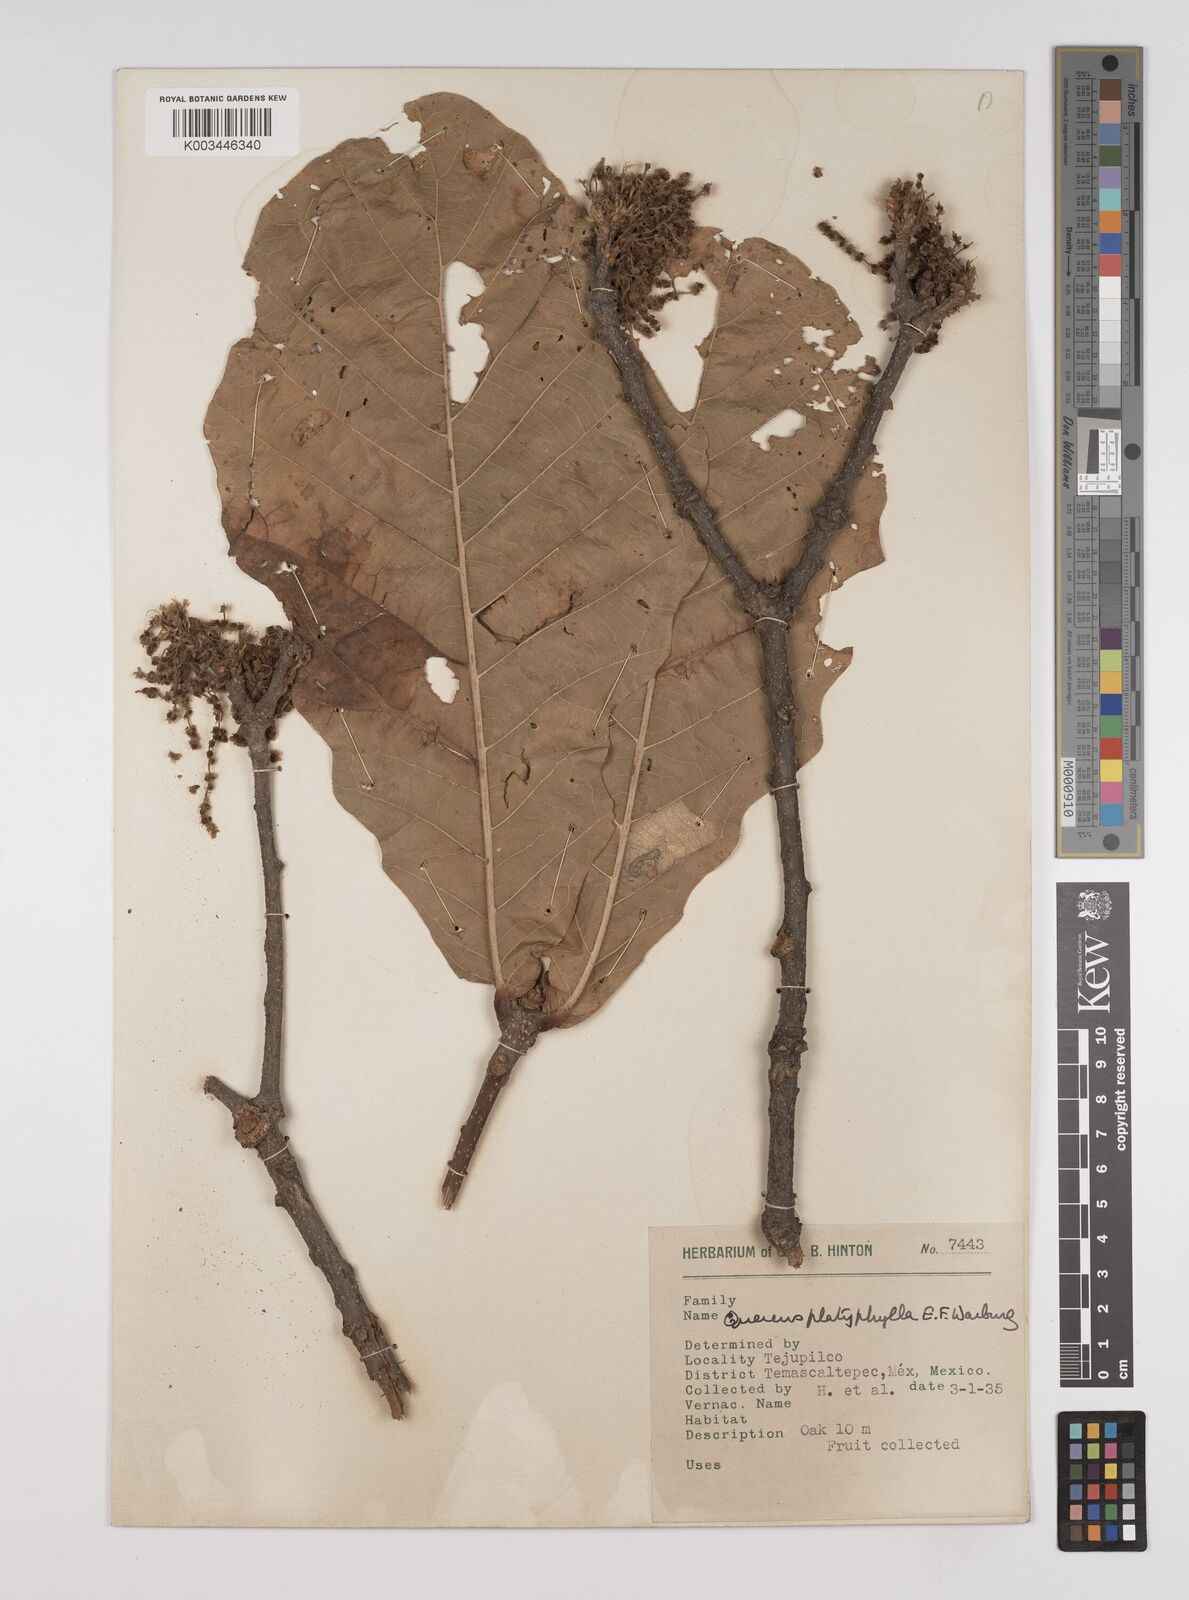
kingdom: Plantae
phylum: Tracheophyta
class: Magnoliopsida
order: Fagales
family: Fagaceae
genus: Quercus
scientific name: Quercus
